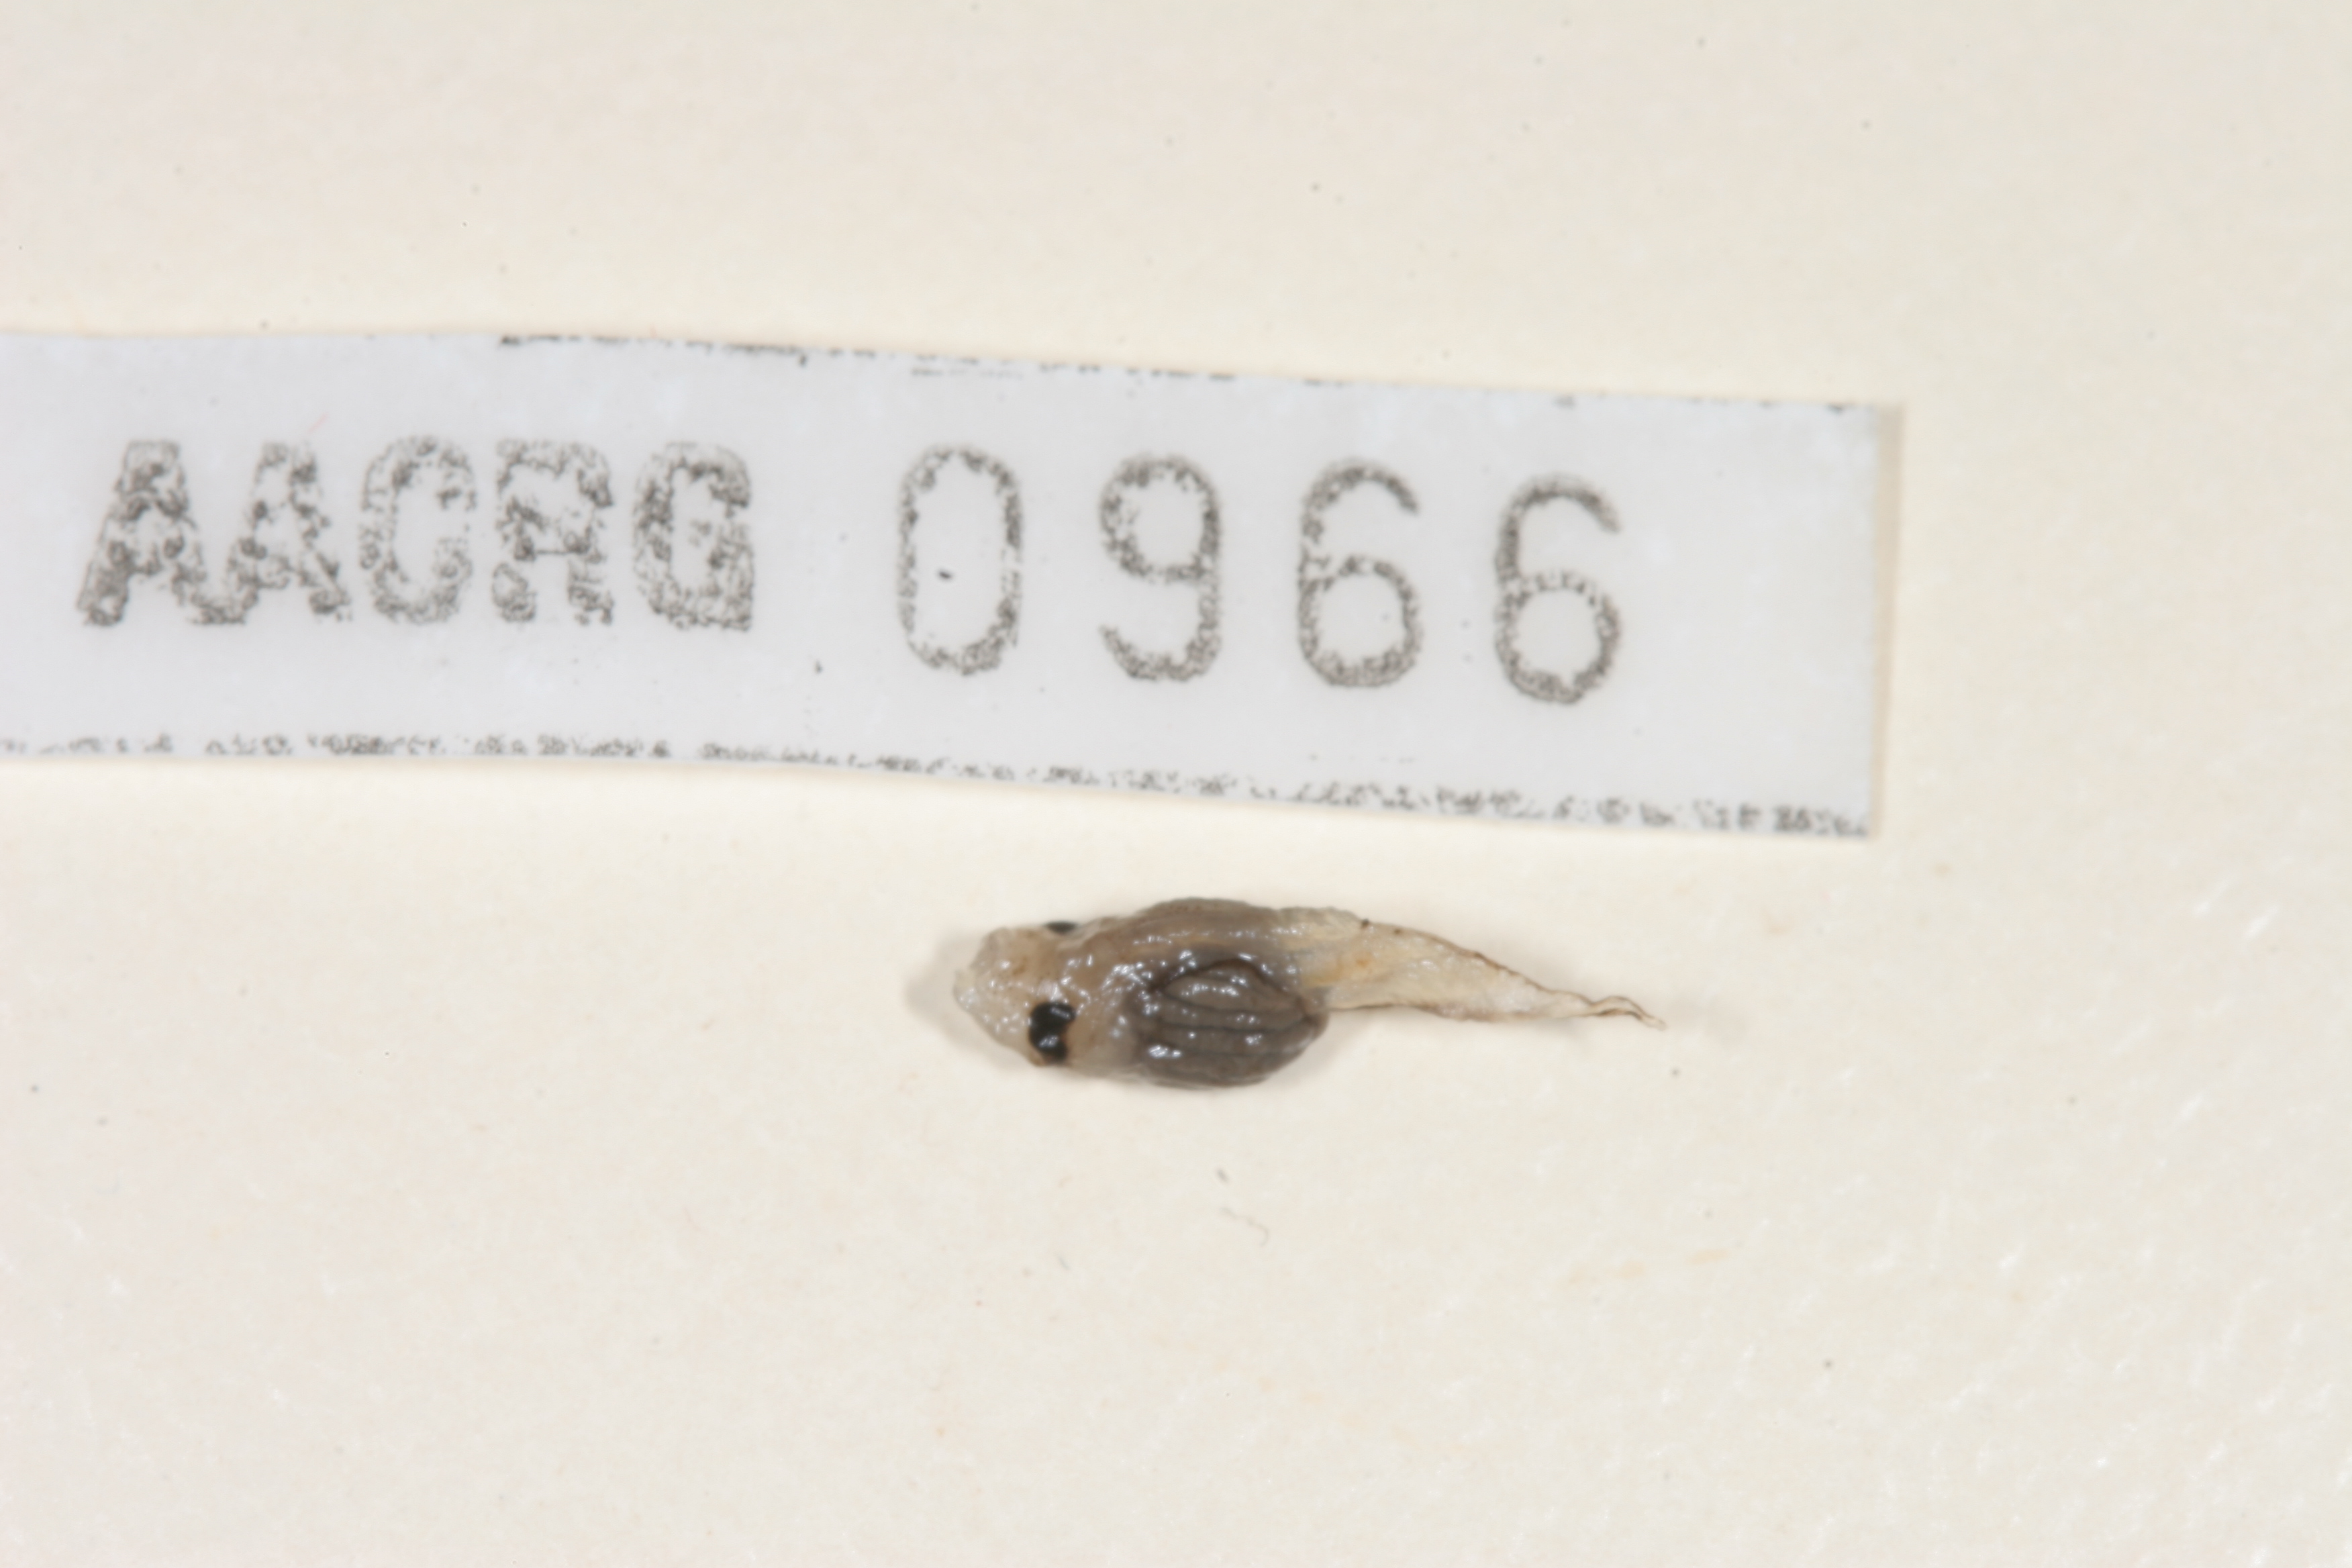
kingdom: Animalia
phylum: Chordata
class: Amphibia
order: Anura
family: Microhylidae
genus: Phrynomantis
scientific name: Phrynomantis bifasciatus
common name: Banded rubber frog
